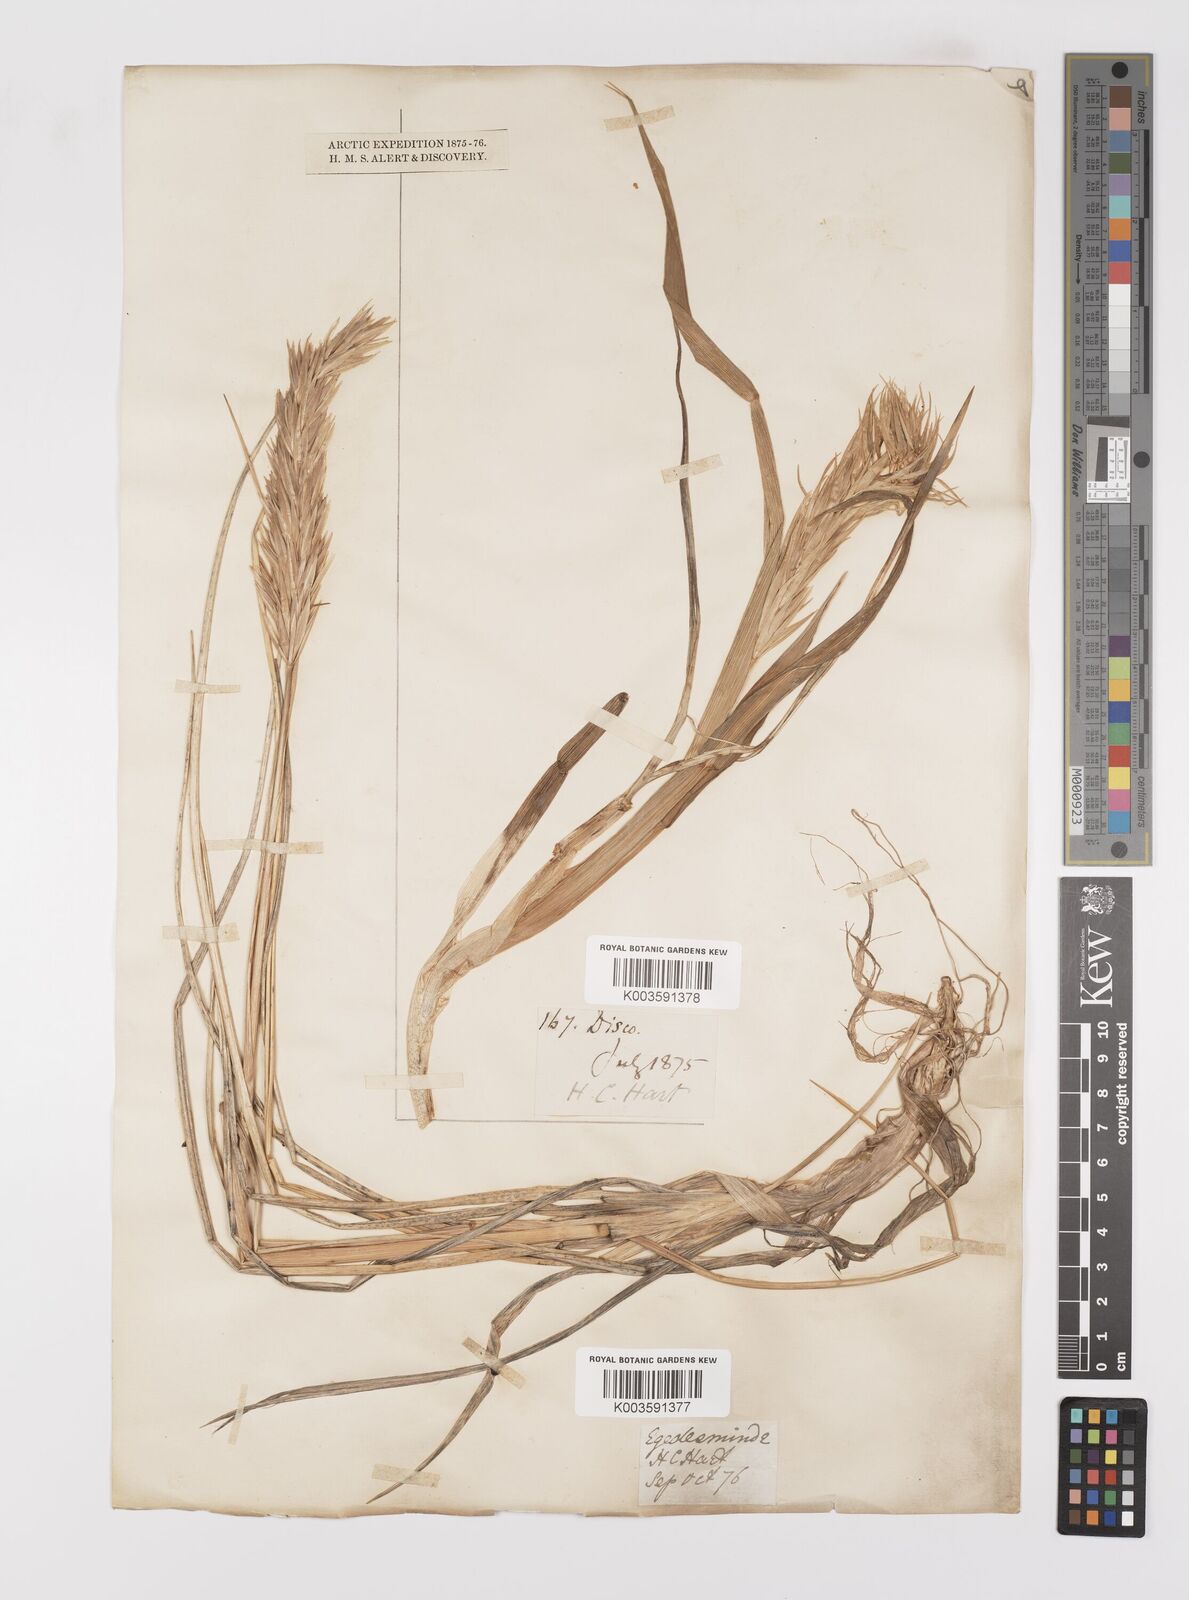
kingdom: Plantae
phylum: Tracheophyta
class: Liliopsida
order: Poales
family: Poaceae
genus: Leymus
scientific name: Leymus mollis
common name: American dune grass
